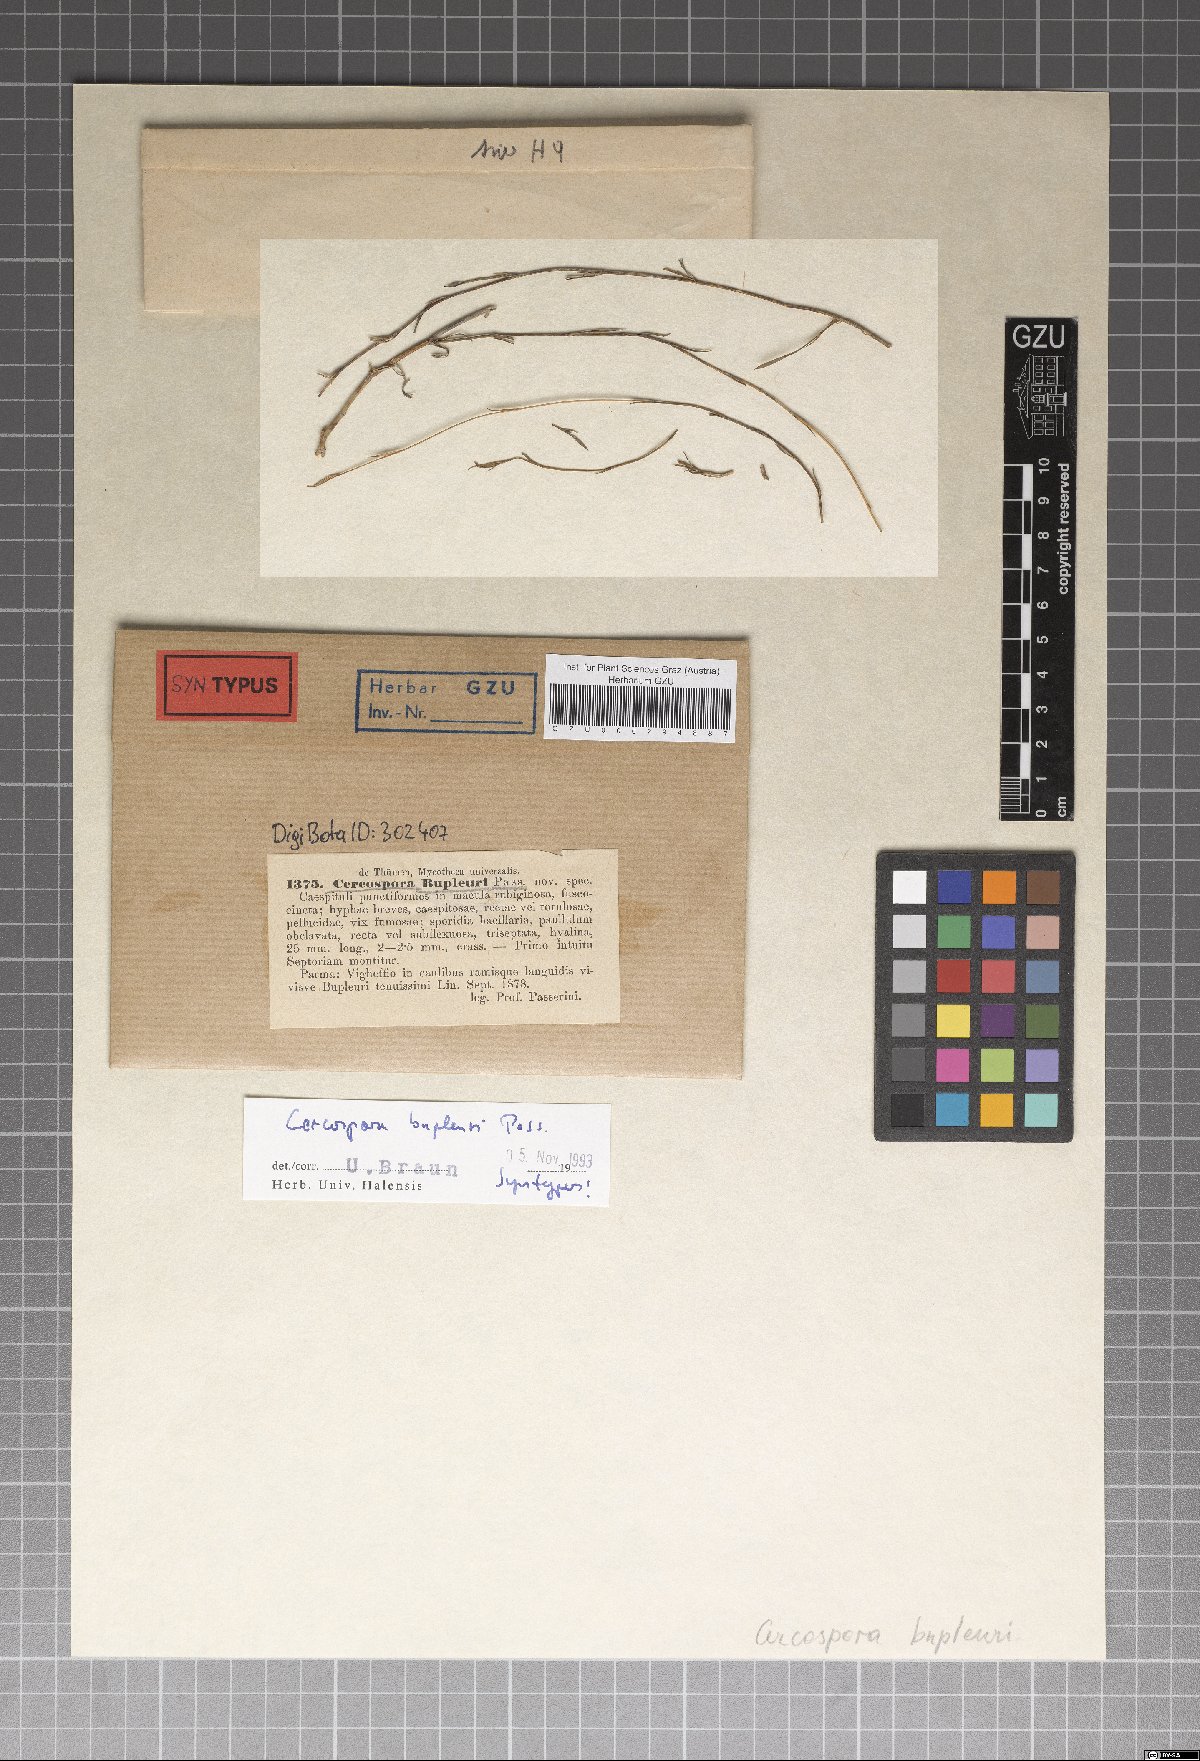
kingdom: Fungi
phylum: Ascomycota
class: Dothideomycetes
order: Mycosphaerellales
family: Mycosphaerellaceae
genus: Passalora
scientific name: Passalora bupleuri
